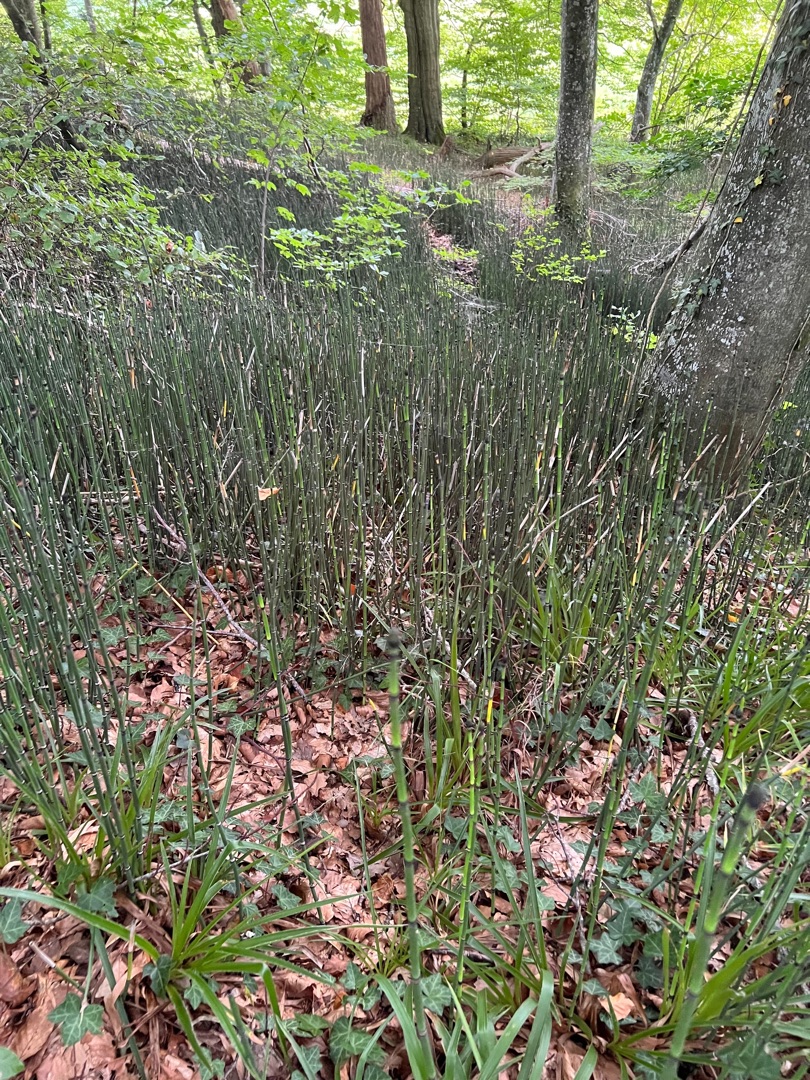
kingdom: Plantae
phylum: Tracheophyta
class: Polypodiopsida
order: Equisetales
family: Equisetaceae
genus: Equisetum
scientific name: Equisetum hyemale
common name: Skavgræs
